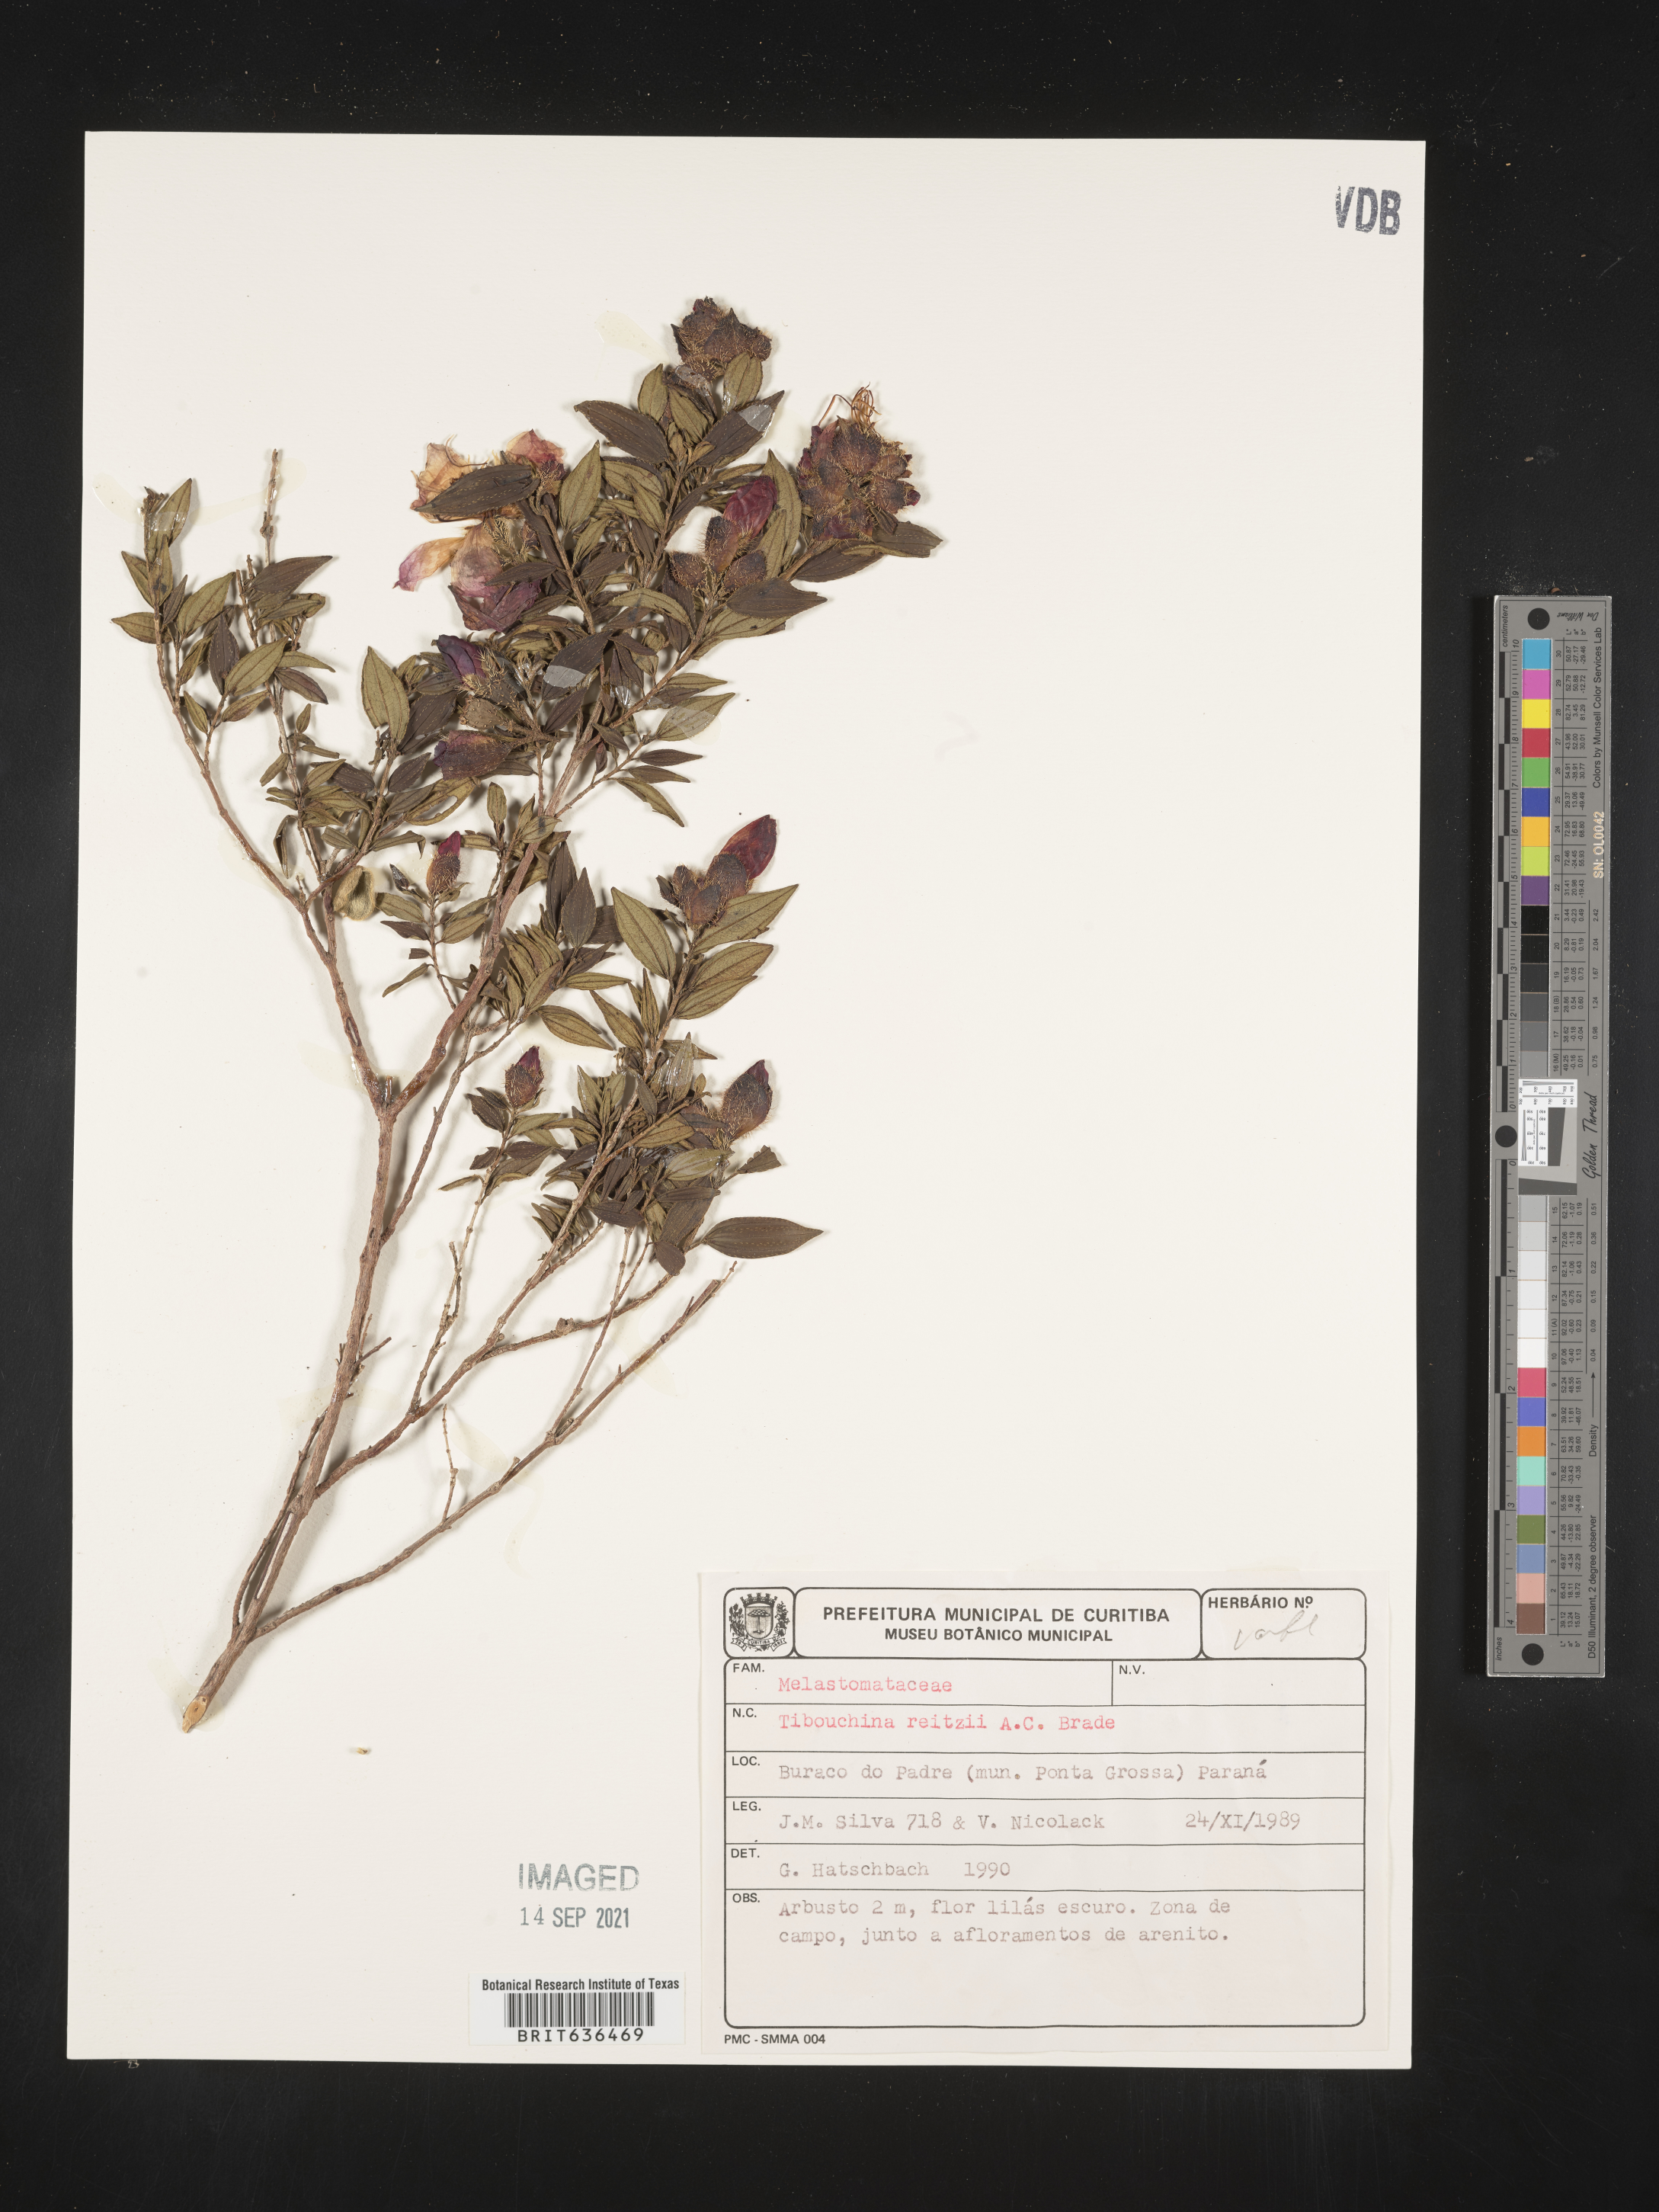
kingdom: Plantae
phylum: Tracheophyta
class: Magnoliopsida
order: Myrtales
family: Melastomataceae
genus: Tibouchina
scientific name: Tibouchina
